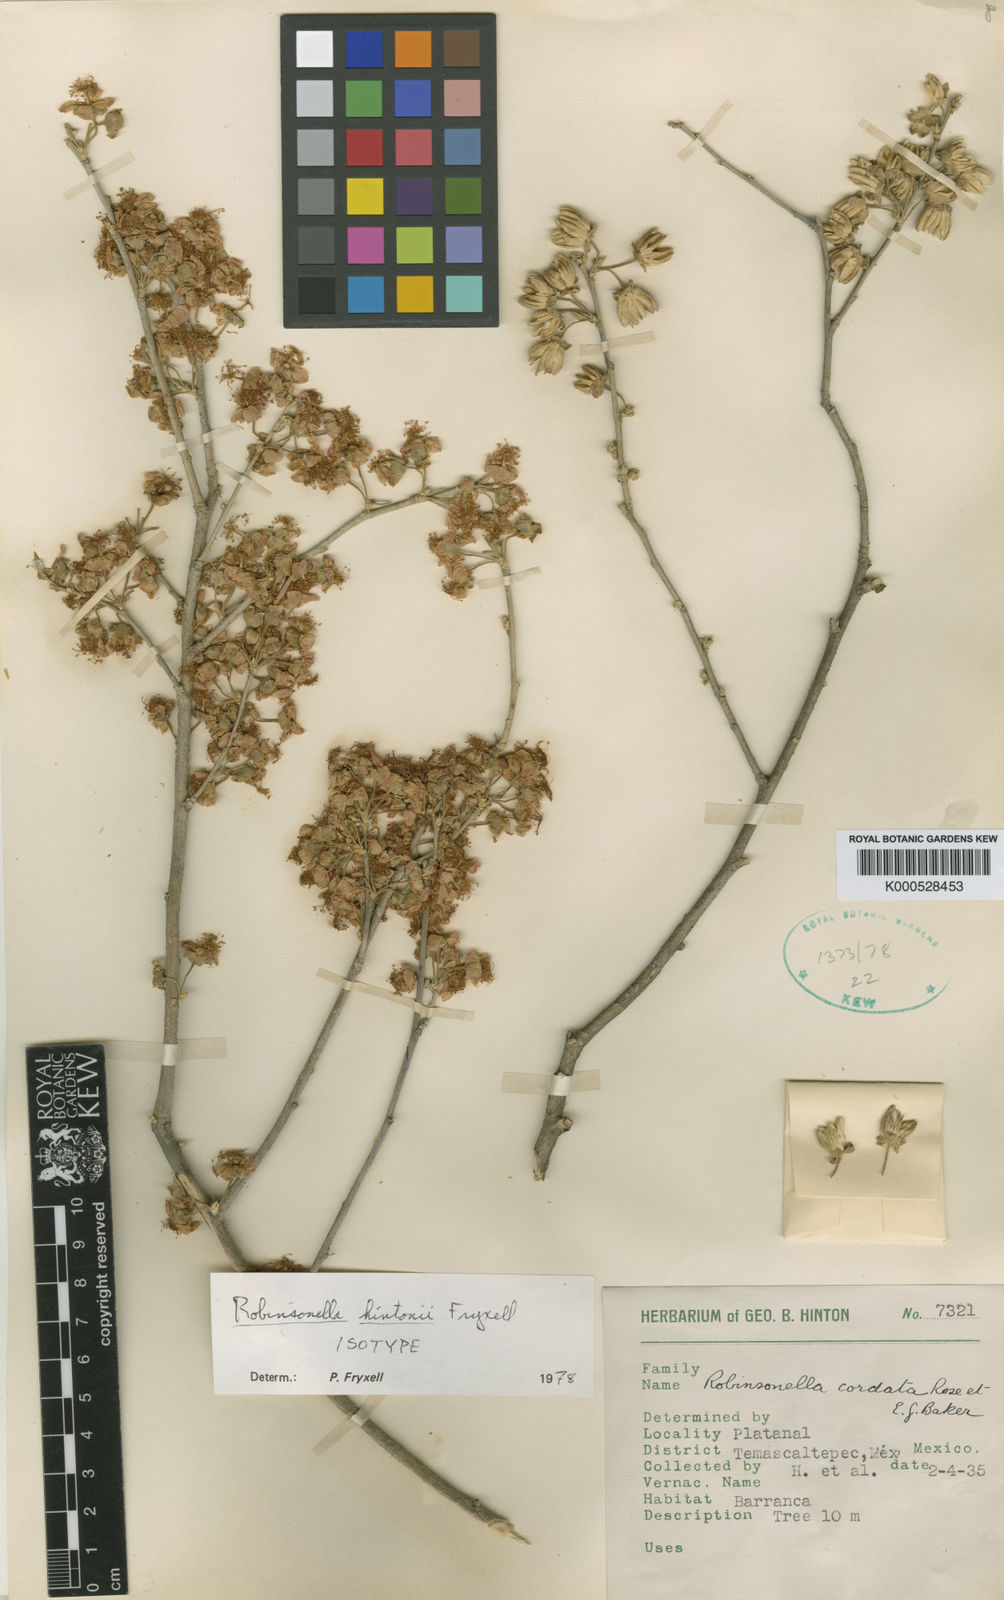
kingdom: Plantae
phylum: Tracheophyta
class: Magnoliopsida
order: Malvales
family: Malvaceae
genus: Robinsonella
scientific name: Robinsonella hintonii
